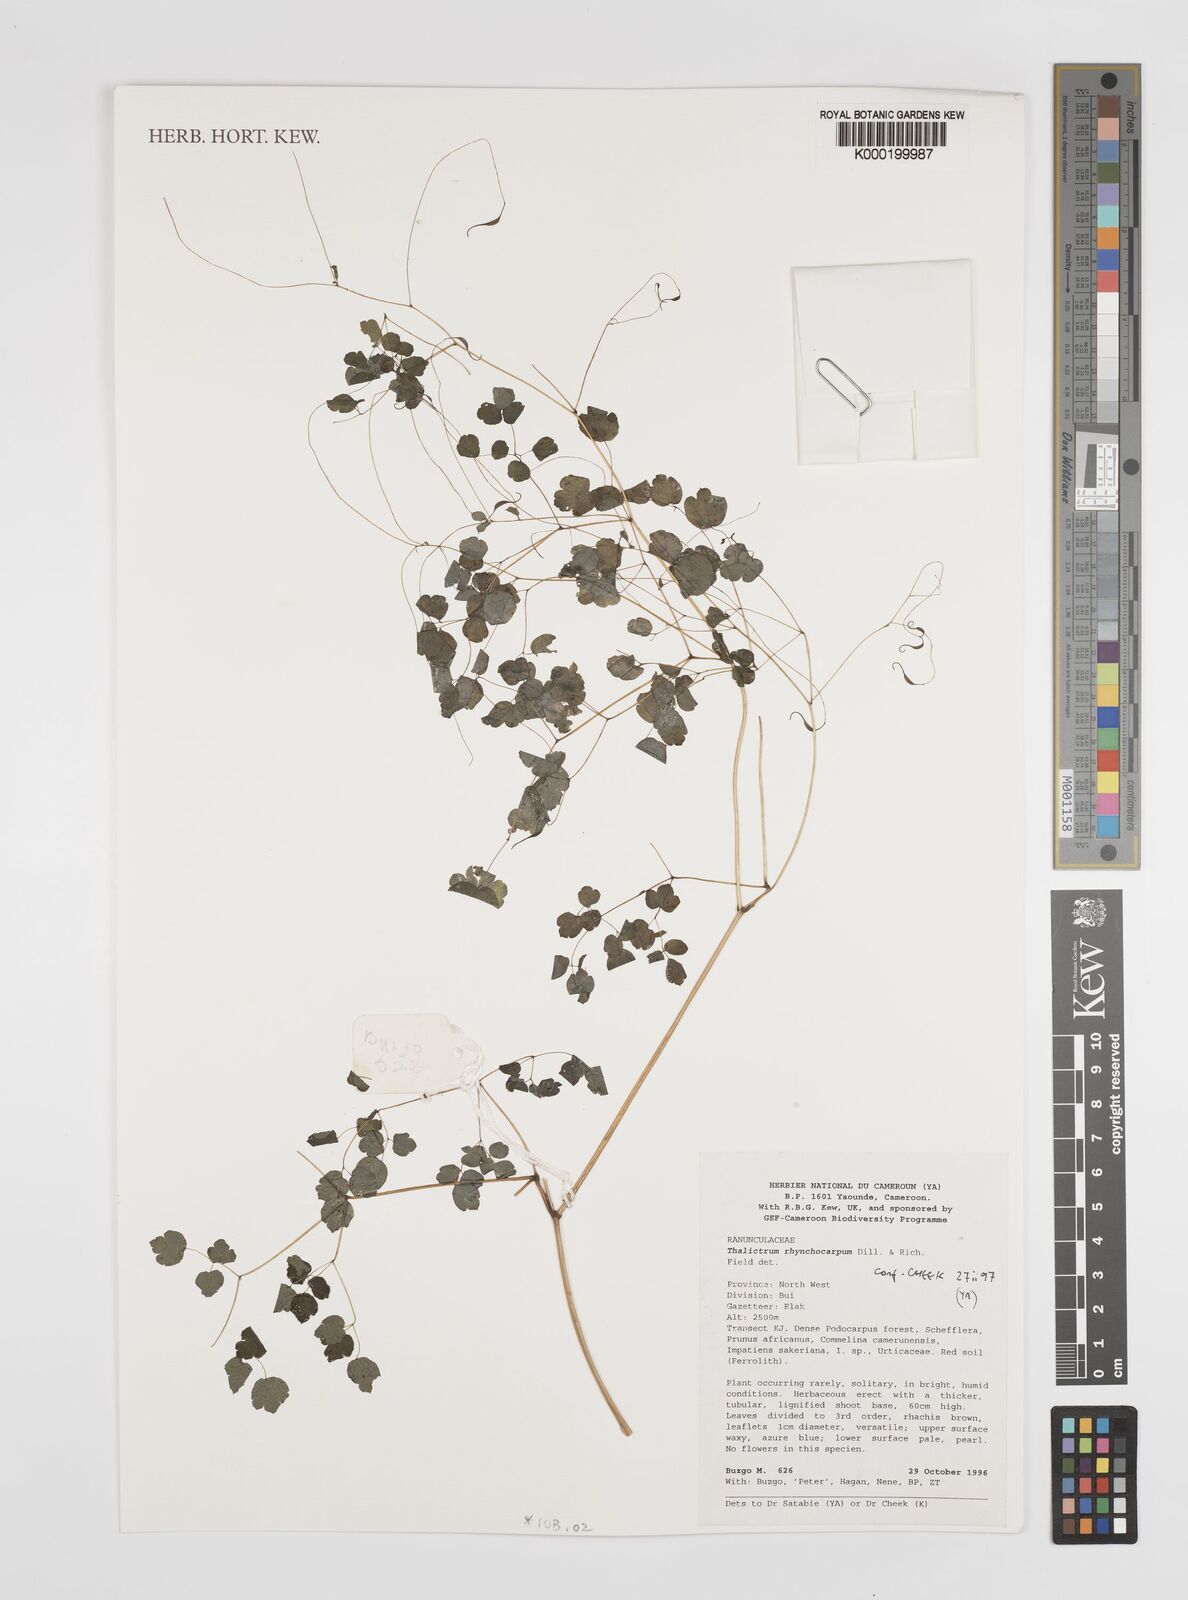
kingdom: Plantae
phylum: Tracheophyta
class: Magnoliopsida
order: Ranunculales
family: Ranunculaceae
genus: Thalictrum
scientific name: Thalictrum rhynchocarpum
